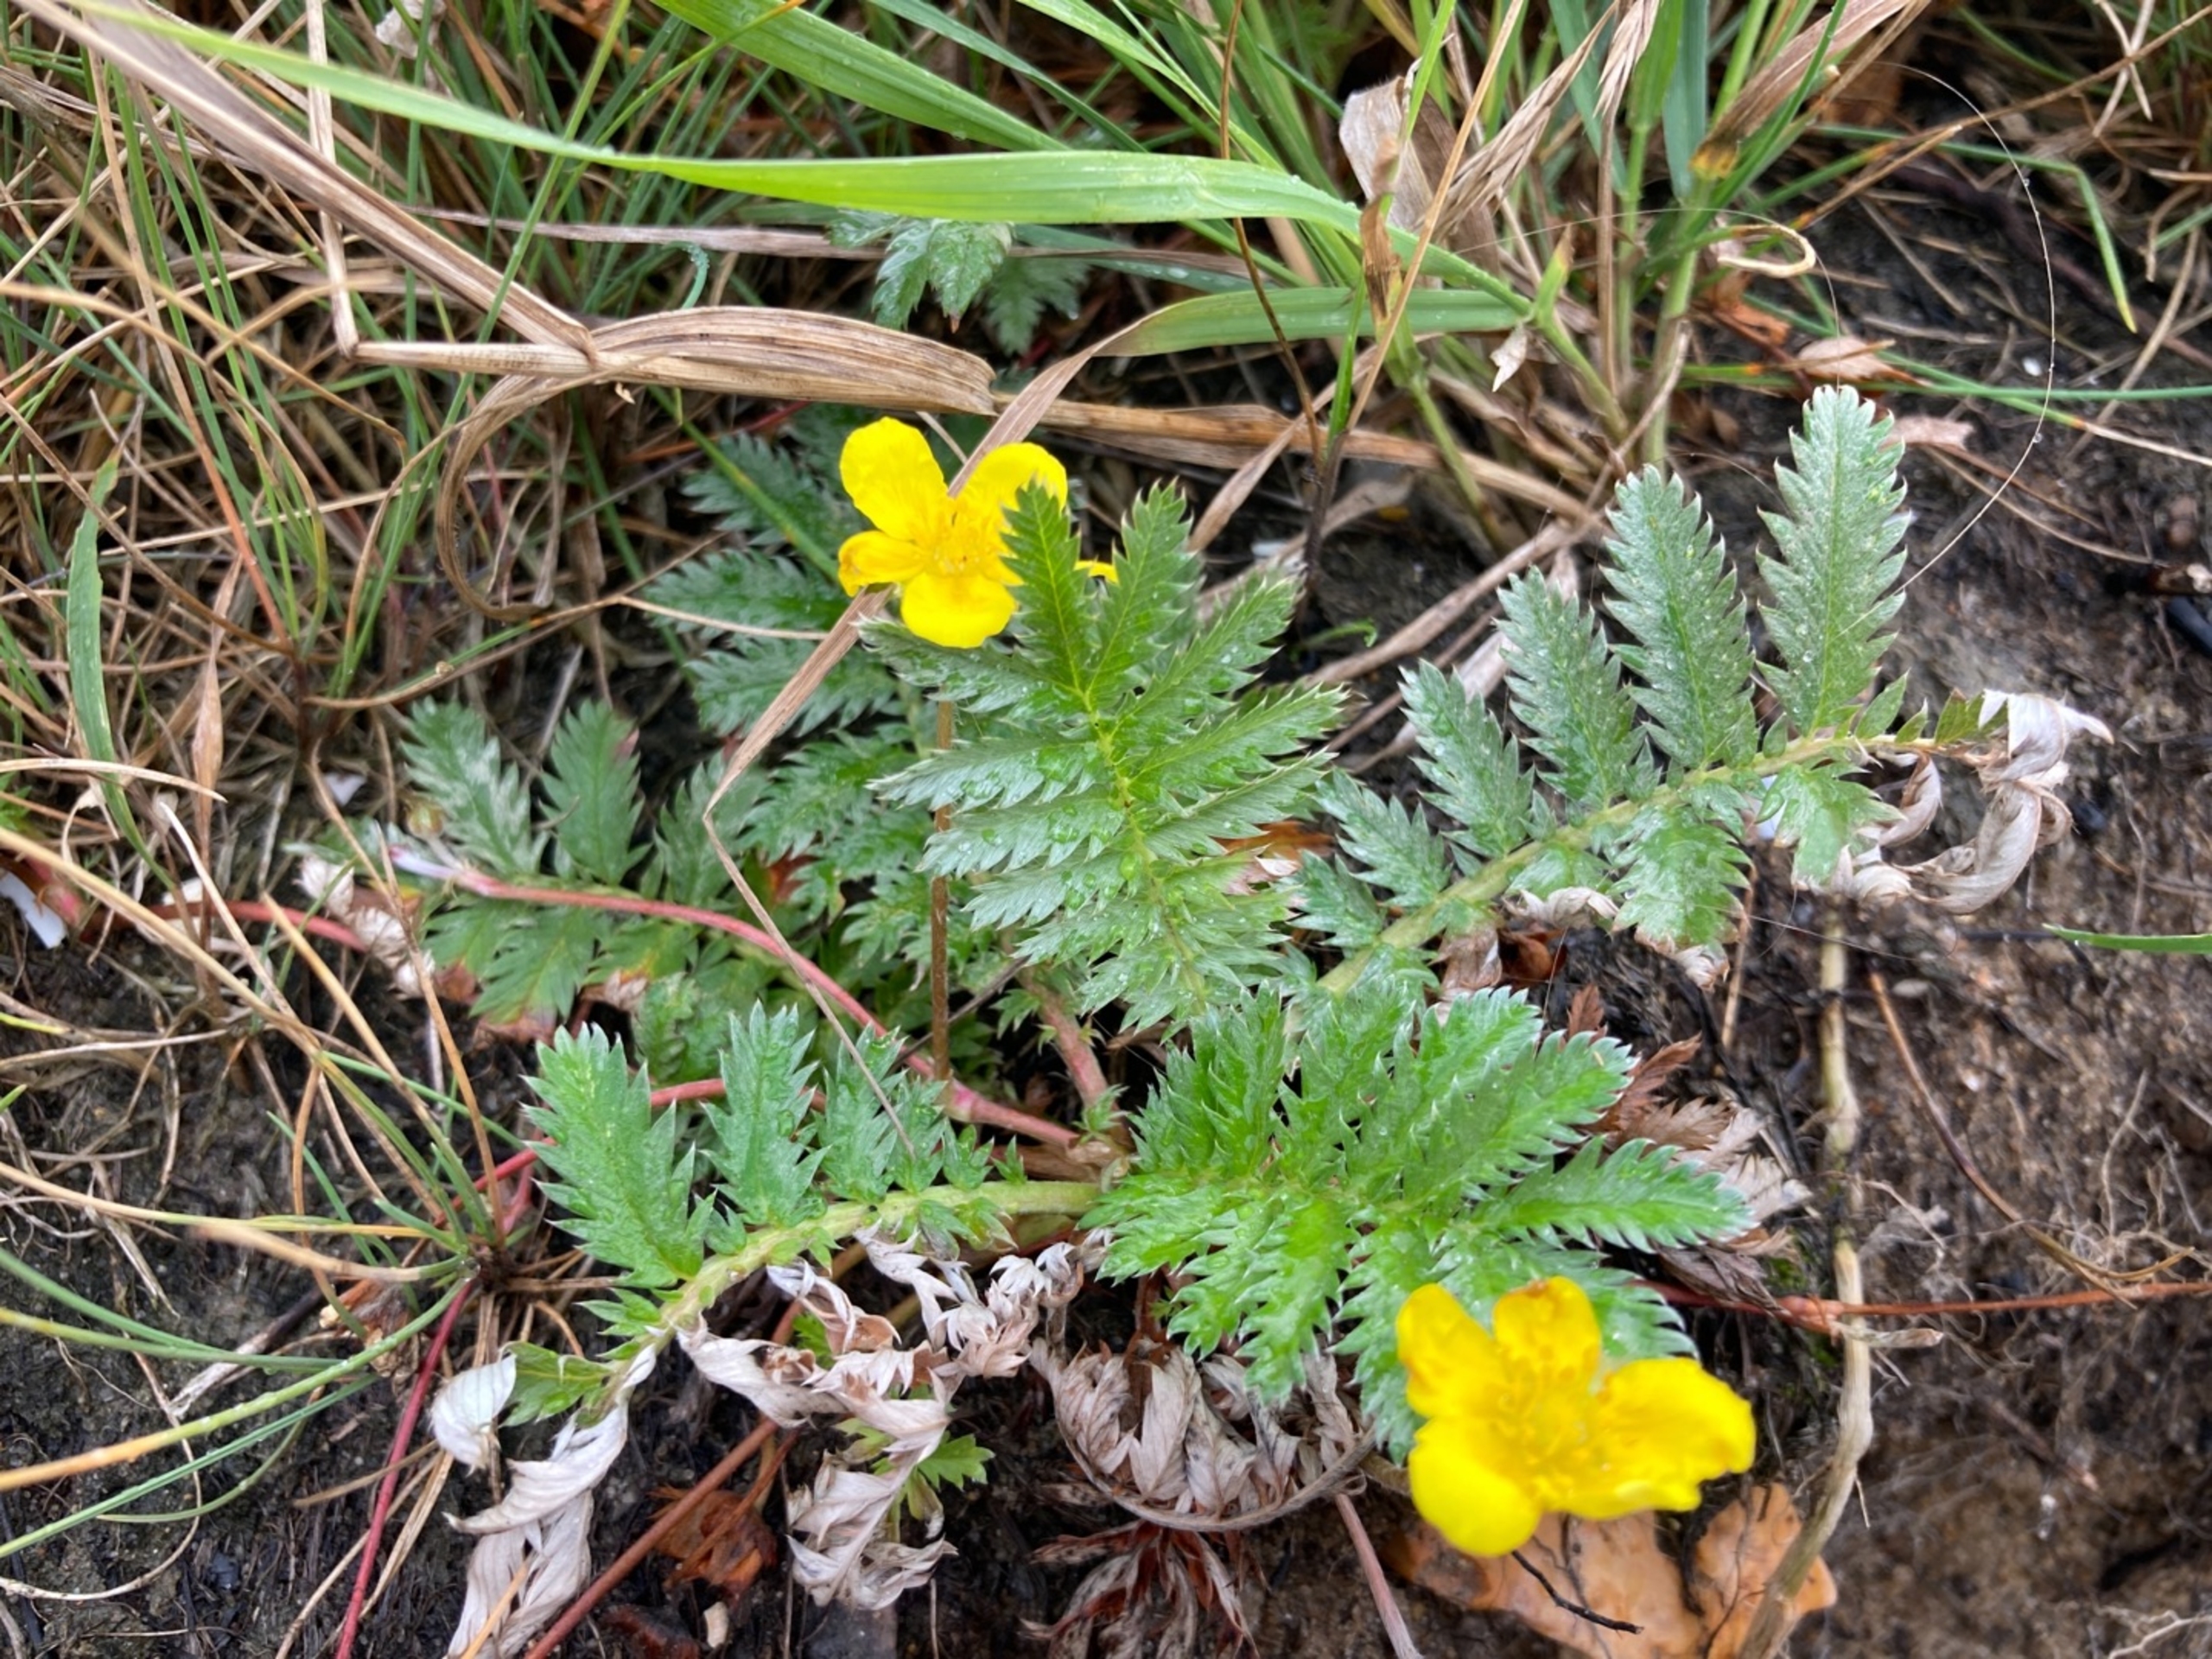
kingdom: Plantae
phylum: Tracheophyta
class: Magnoliopsida
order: Rosales
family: Rosaceae
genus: Argentina
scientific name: Argentina anserina
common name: Gåsepotentil
